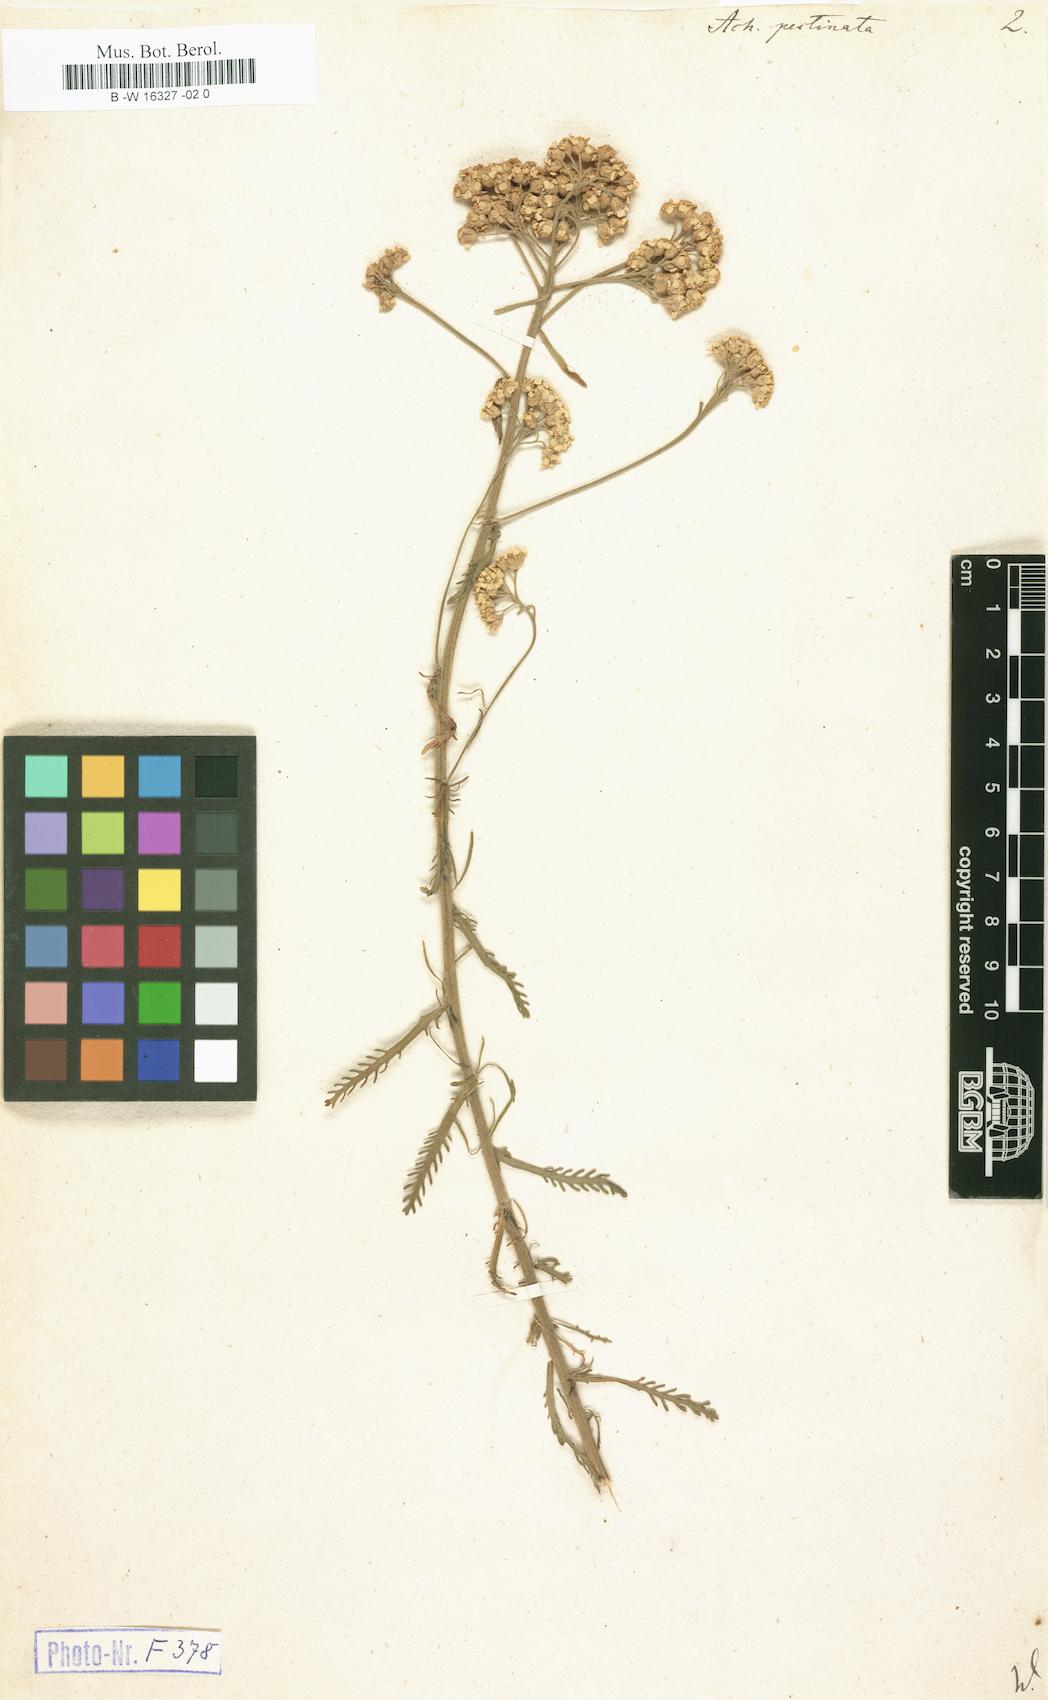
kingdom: Plantae
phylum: Tracheophyta
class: Magnoliopsida
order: Asterales
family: Asteraceae
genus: Achillea
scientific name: Achillea ochroleuca
